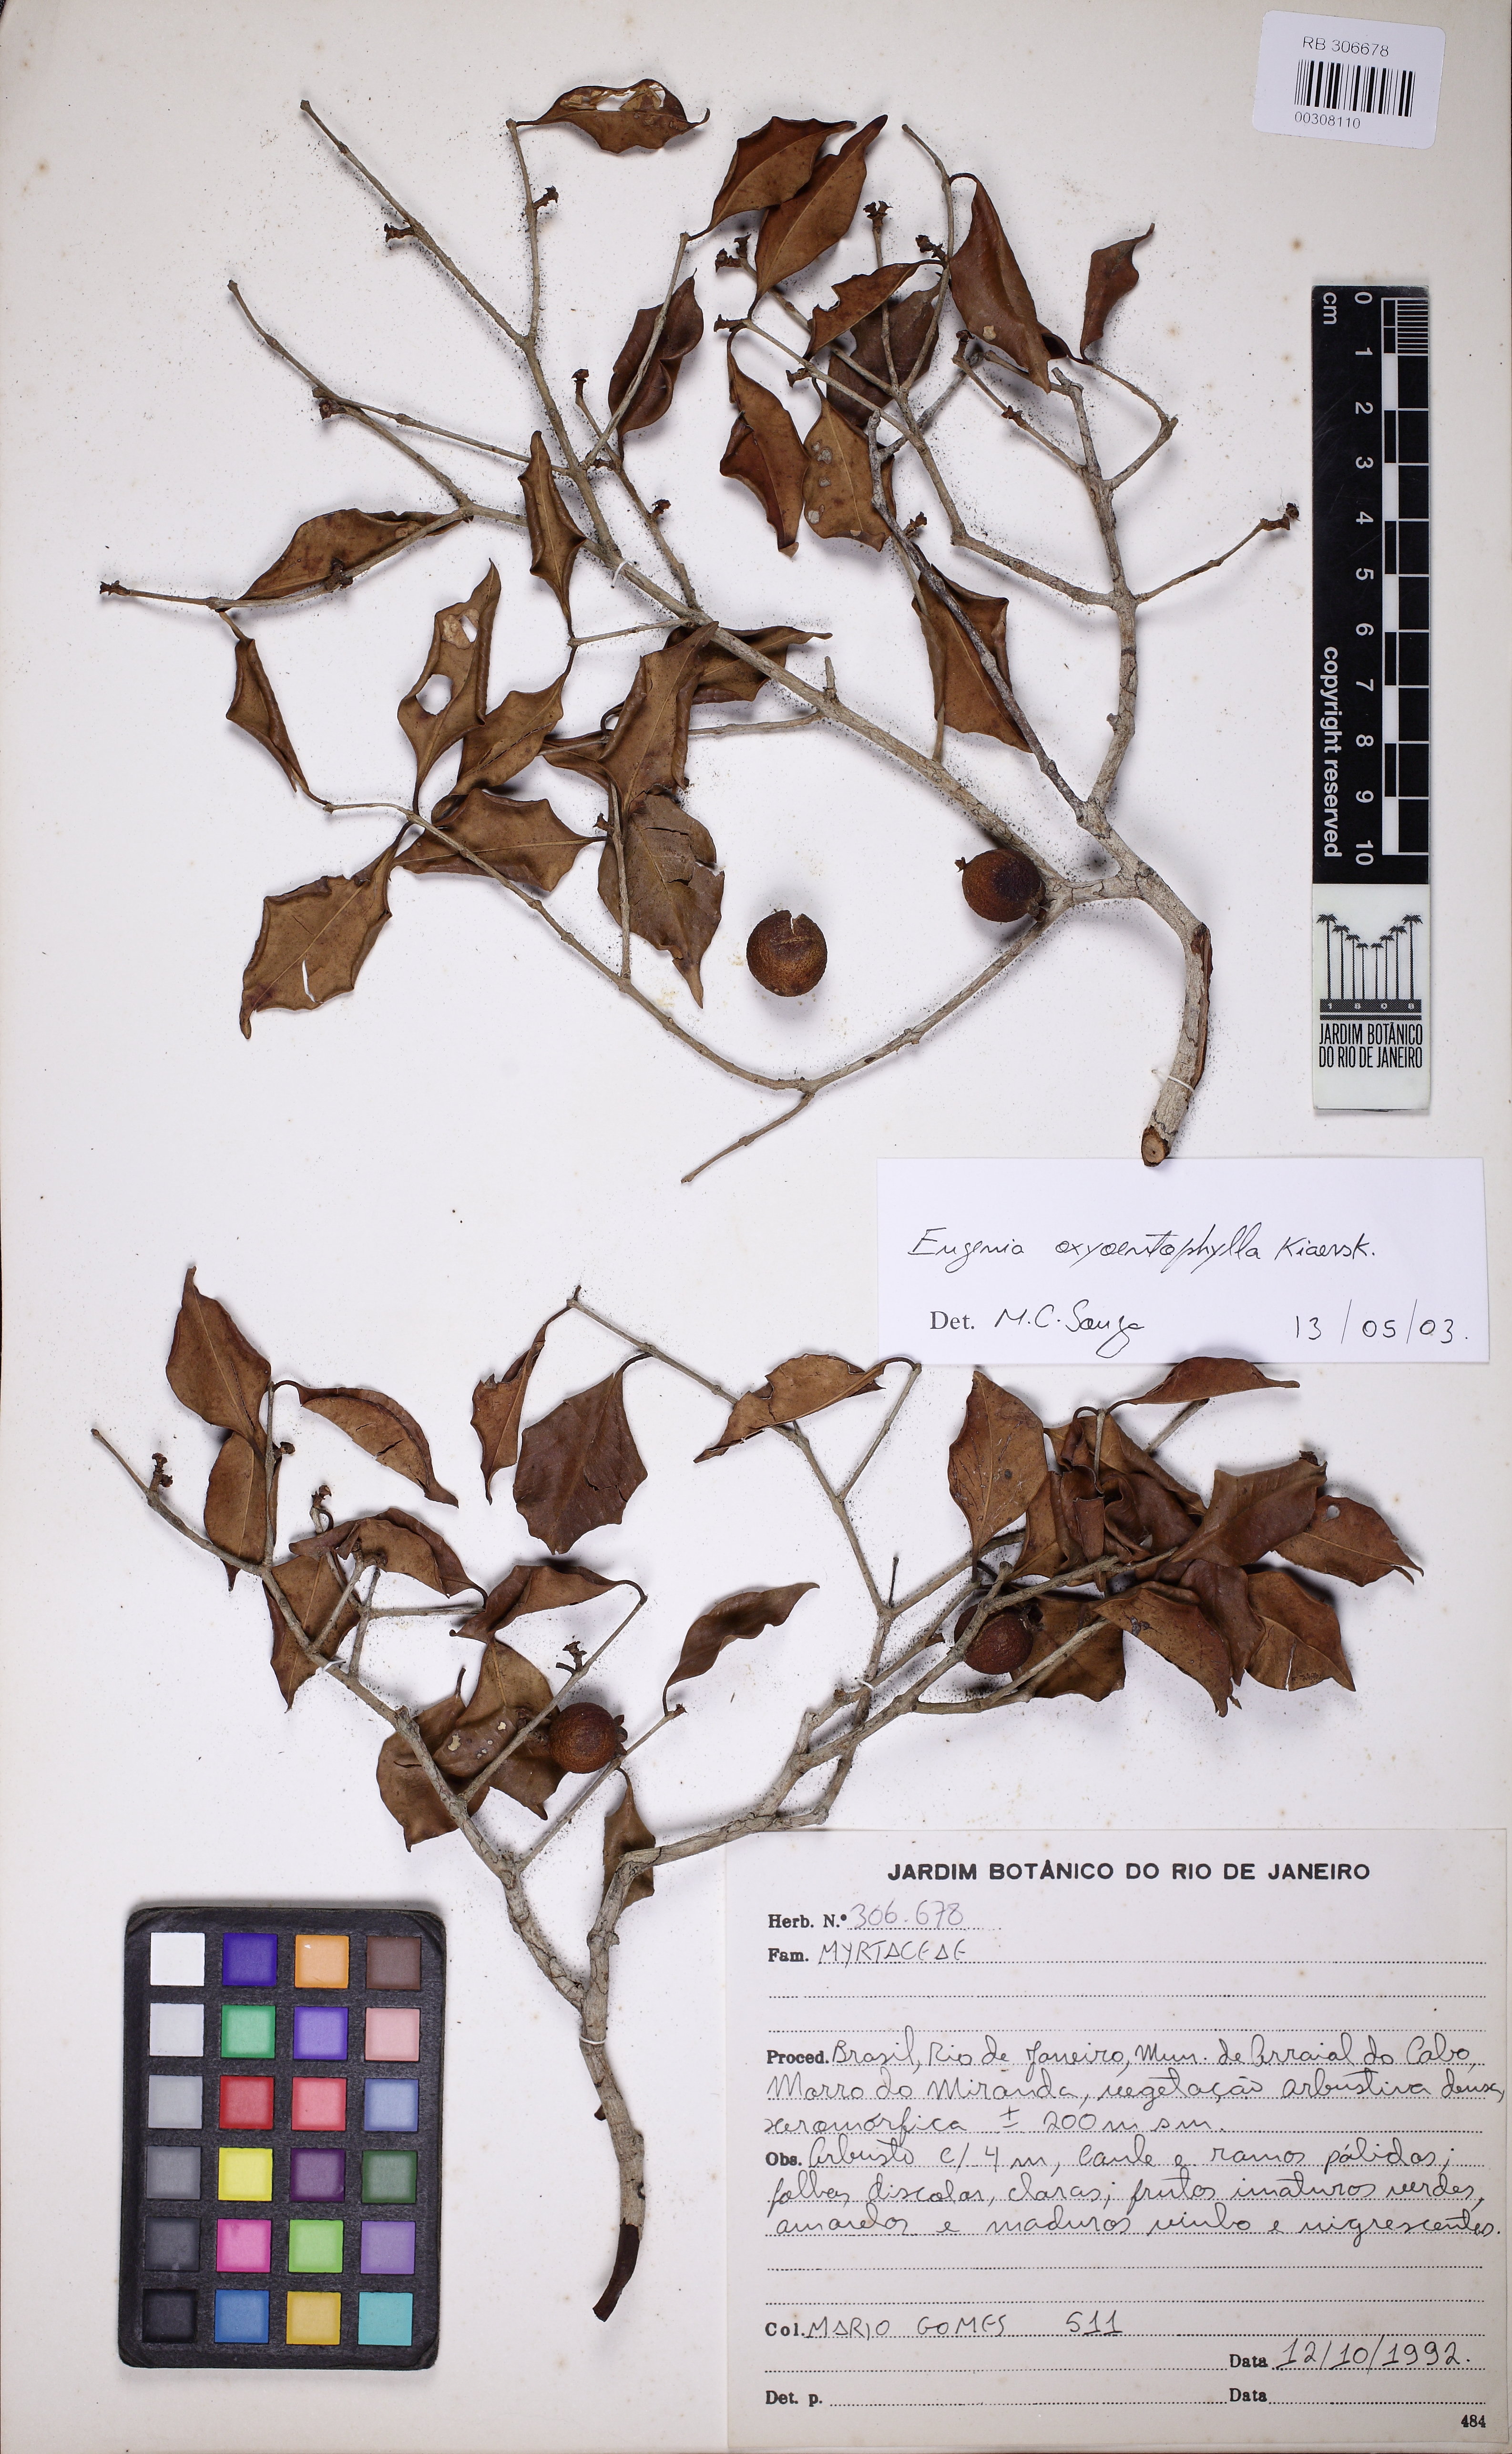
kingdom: Plantae
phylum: Tracheophyta
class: Magnoliopsida
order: Myrtales
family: Myrtaceae
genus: Eugenia
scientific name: Eugenia oxyoentophylla
